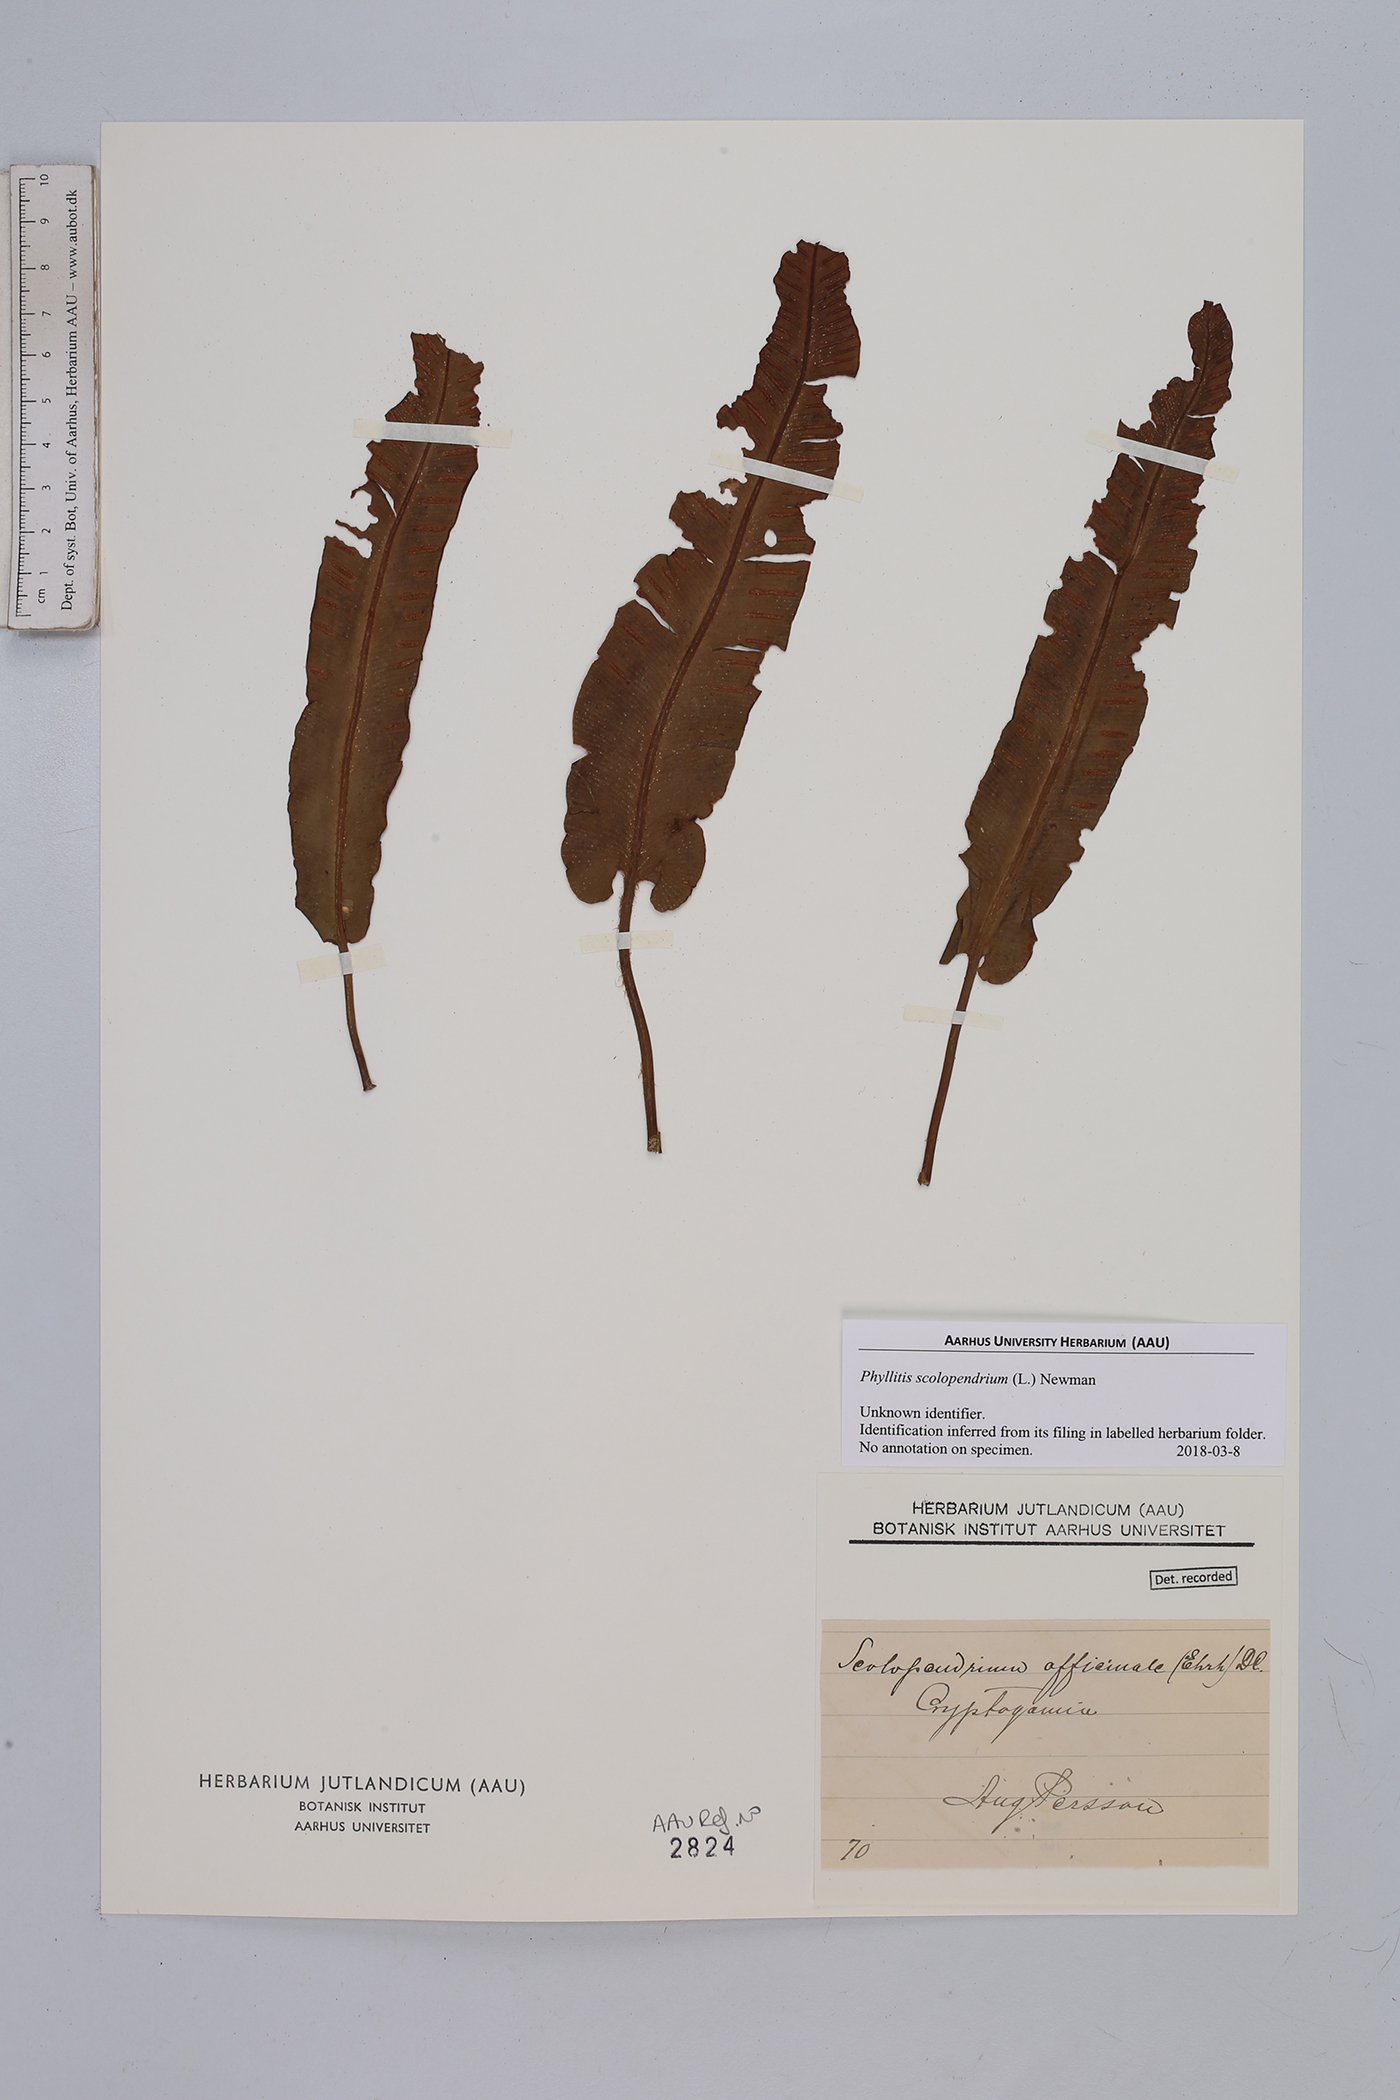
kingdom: Plantae
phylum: Tracheophyta
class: Polypodiopsida
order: Polypodiales
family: Aspleniaceae
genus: Asplenium
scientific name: Asplenium scolopendrium
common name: Hart's-tongue fern
